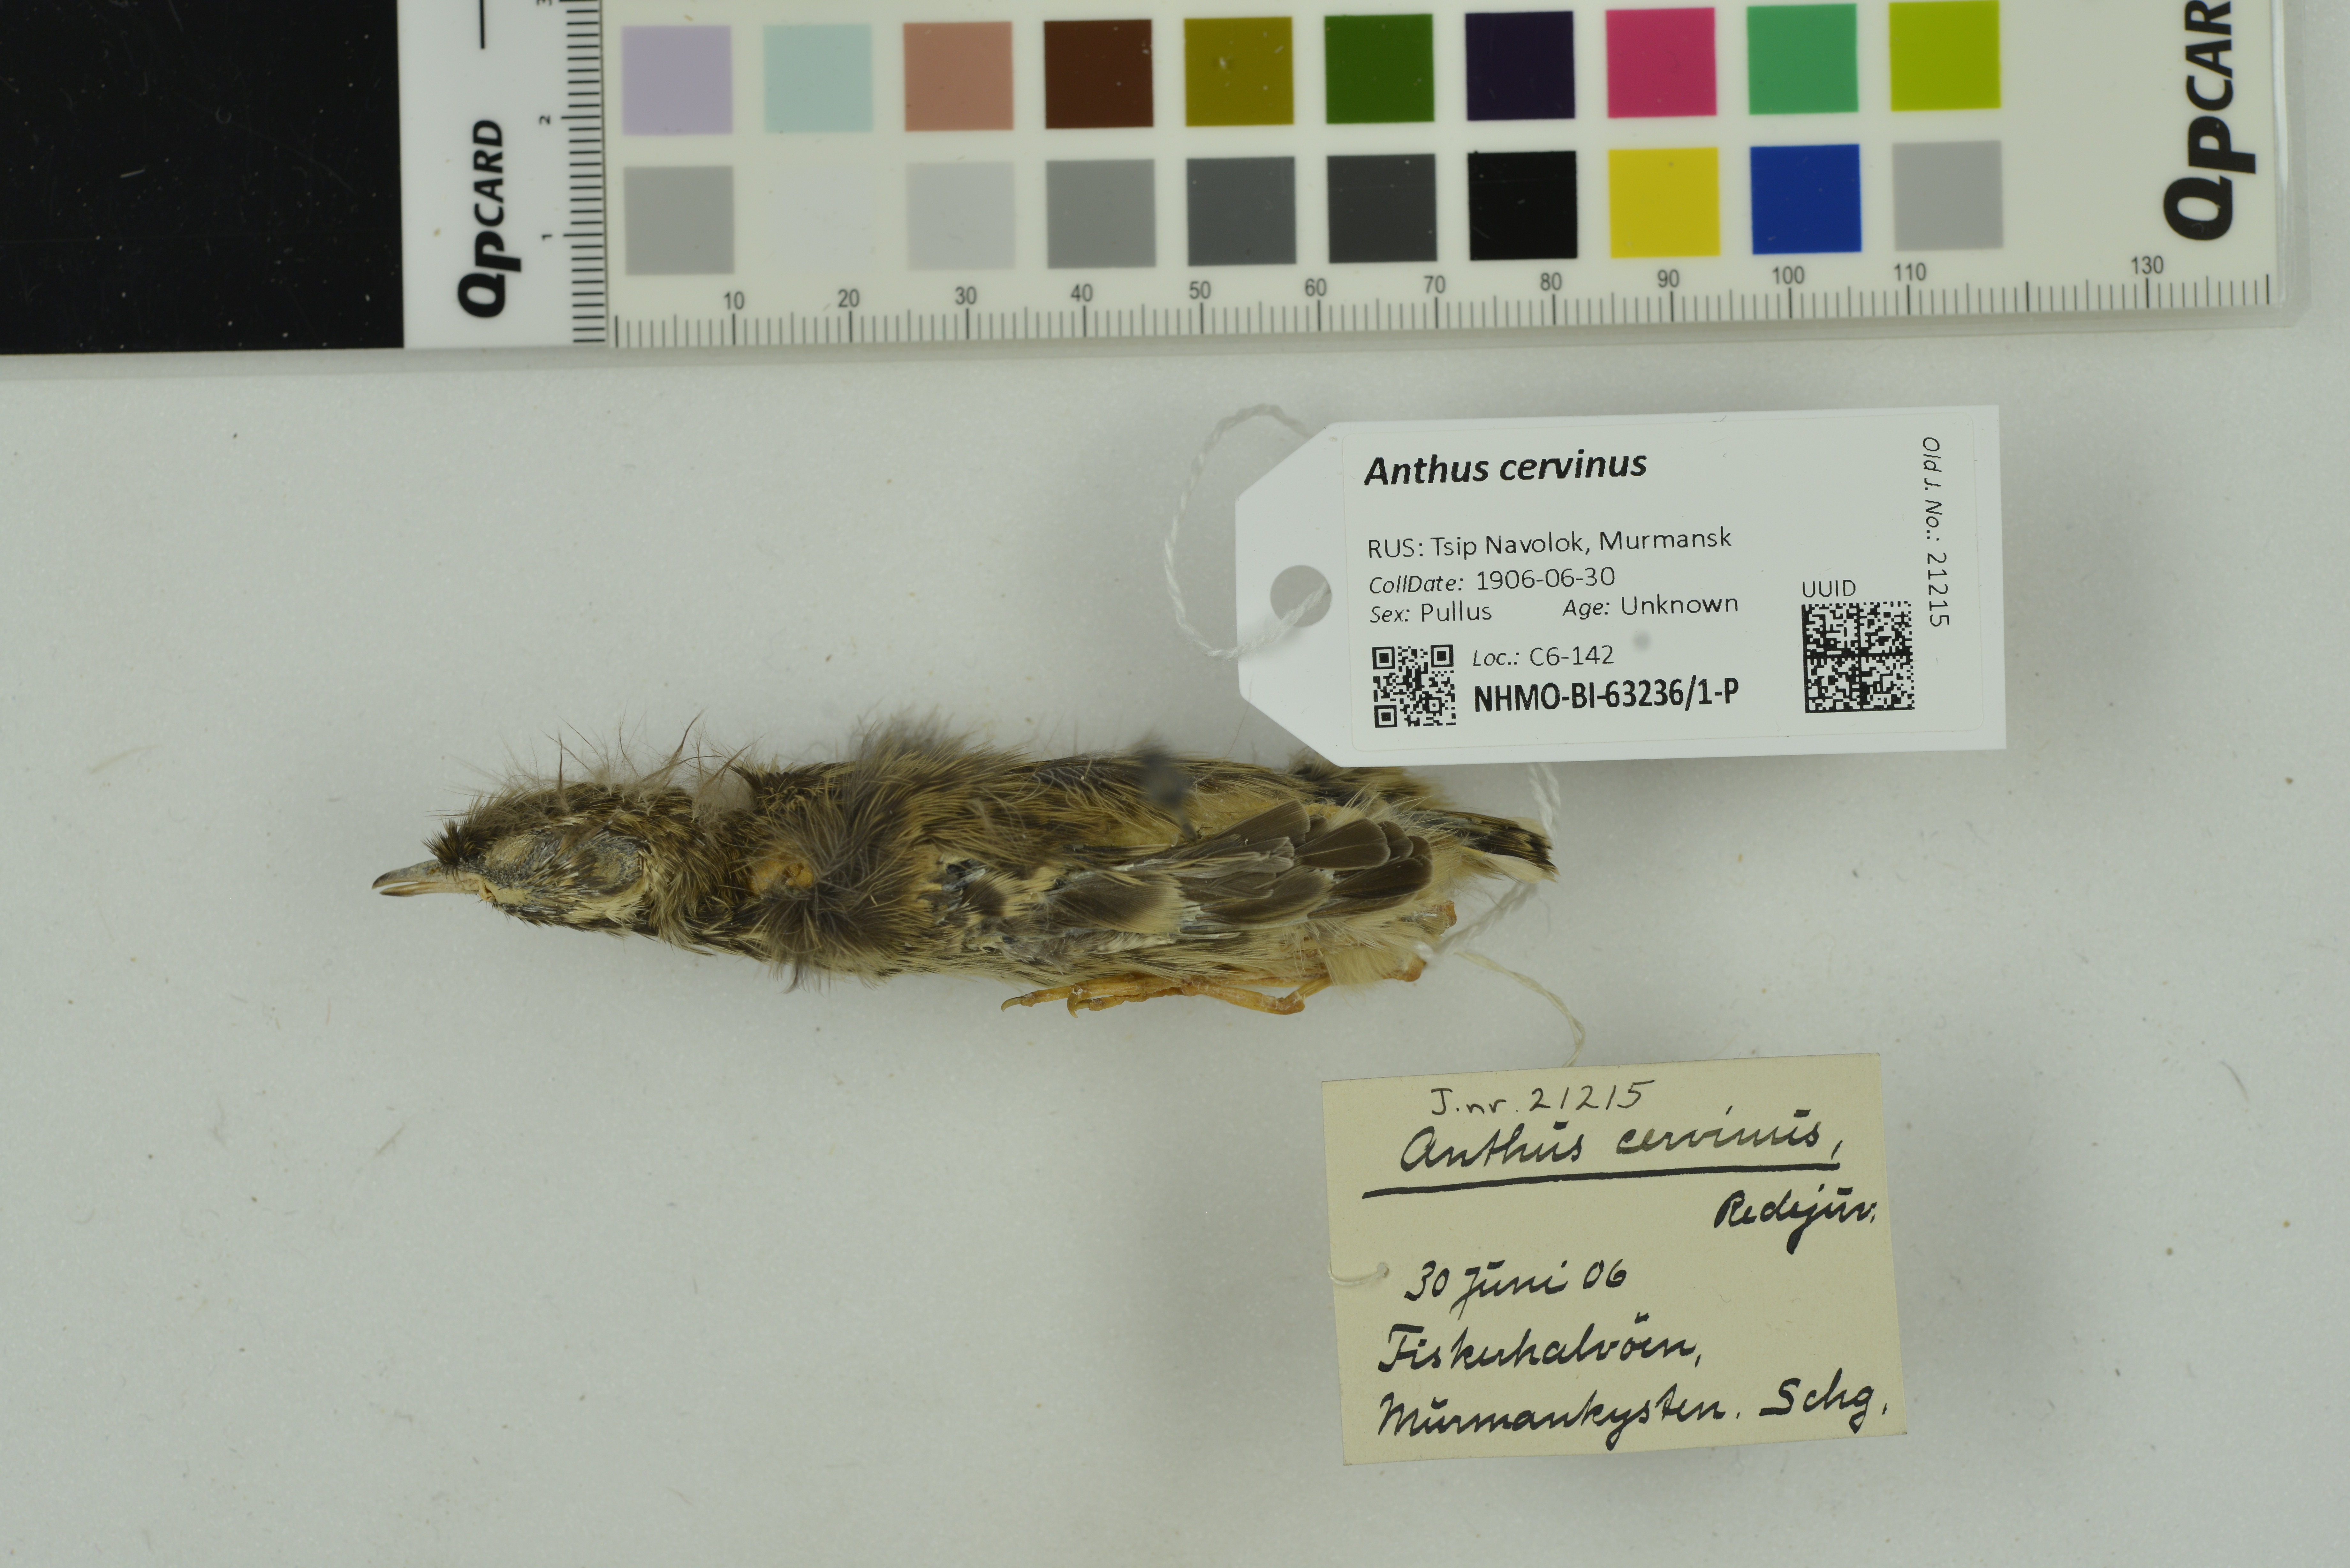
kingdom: Animalia
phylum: Chordata
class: Aves
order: Passeriformes
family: Motacillidae
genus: Anthus
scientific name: Anthus cervinus
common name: Red-throated pipit
